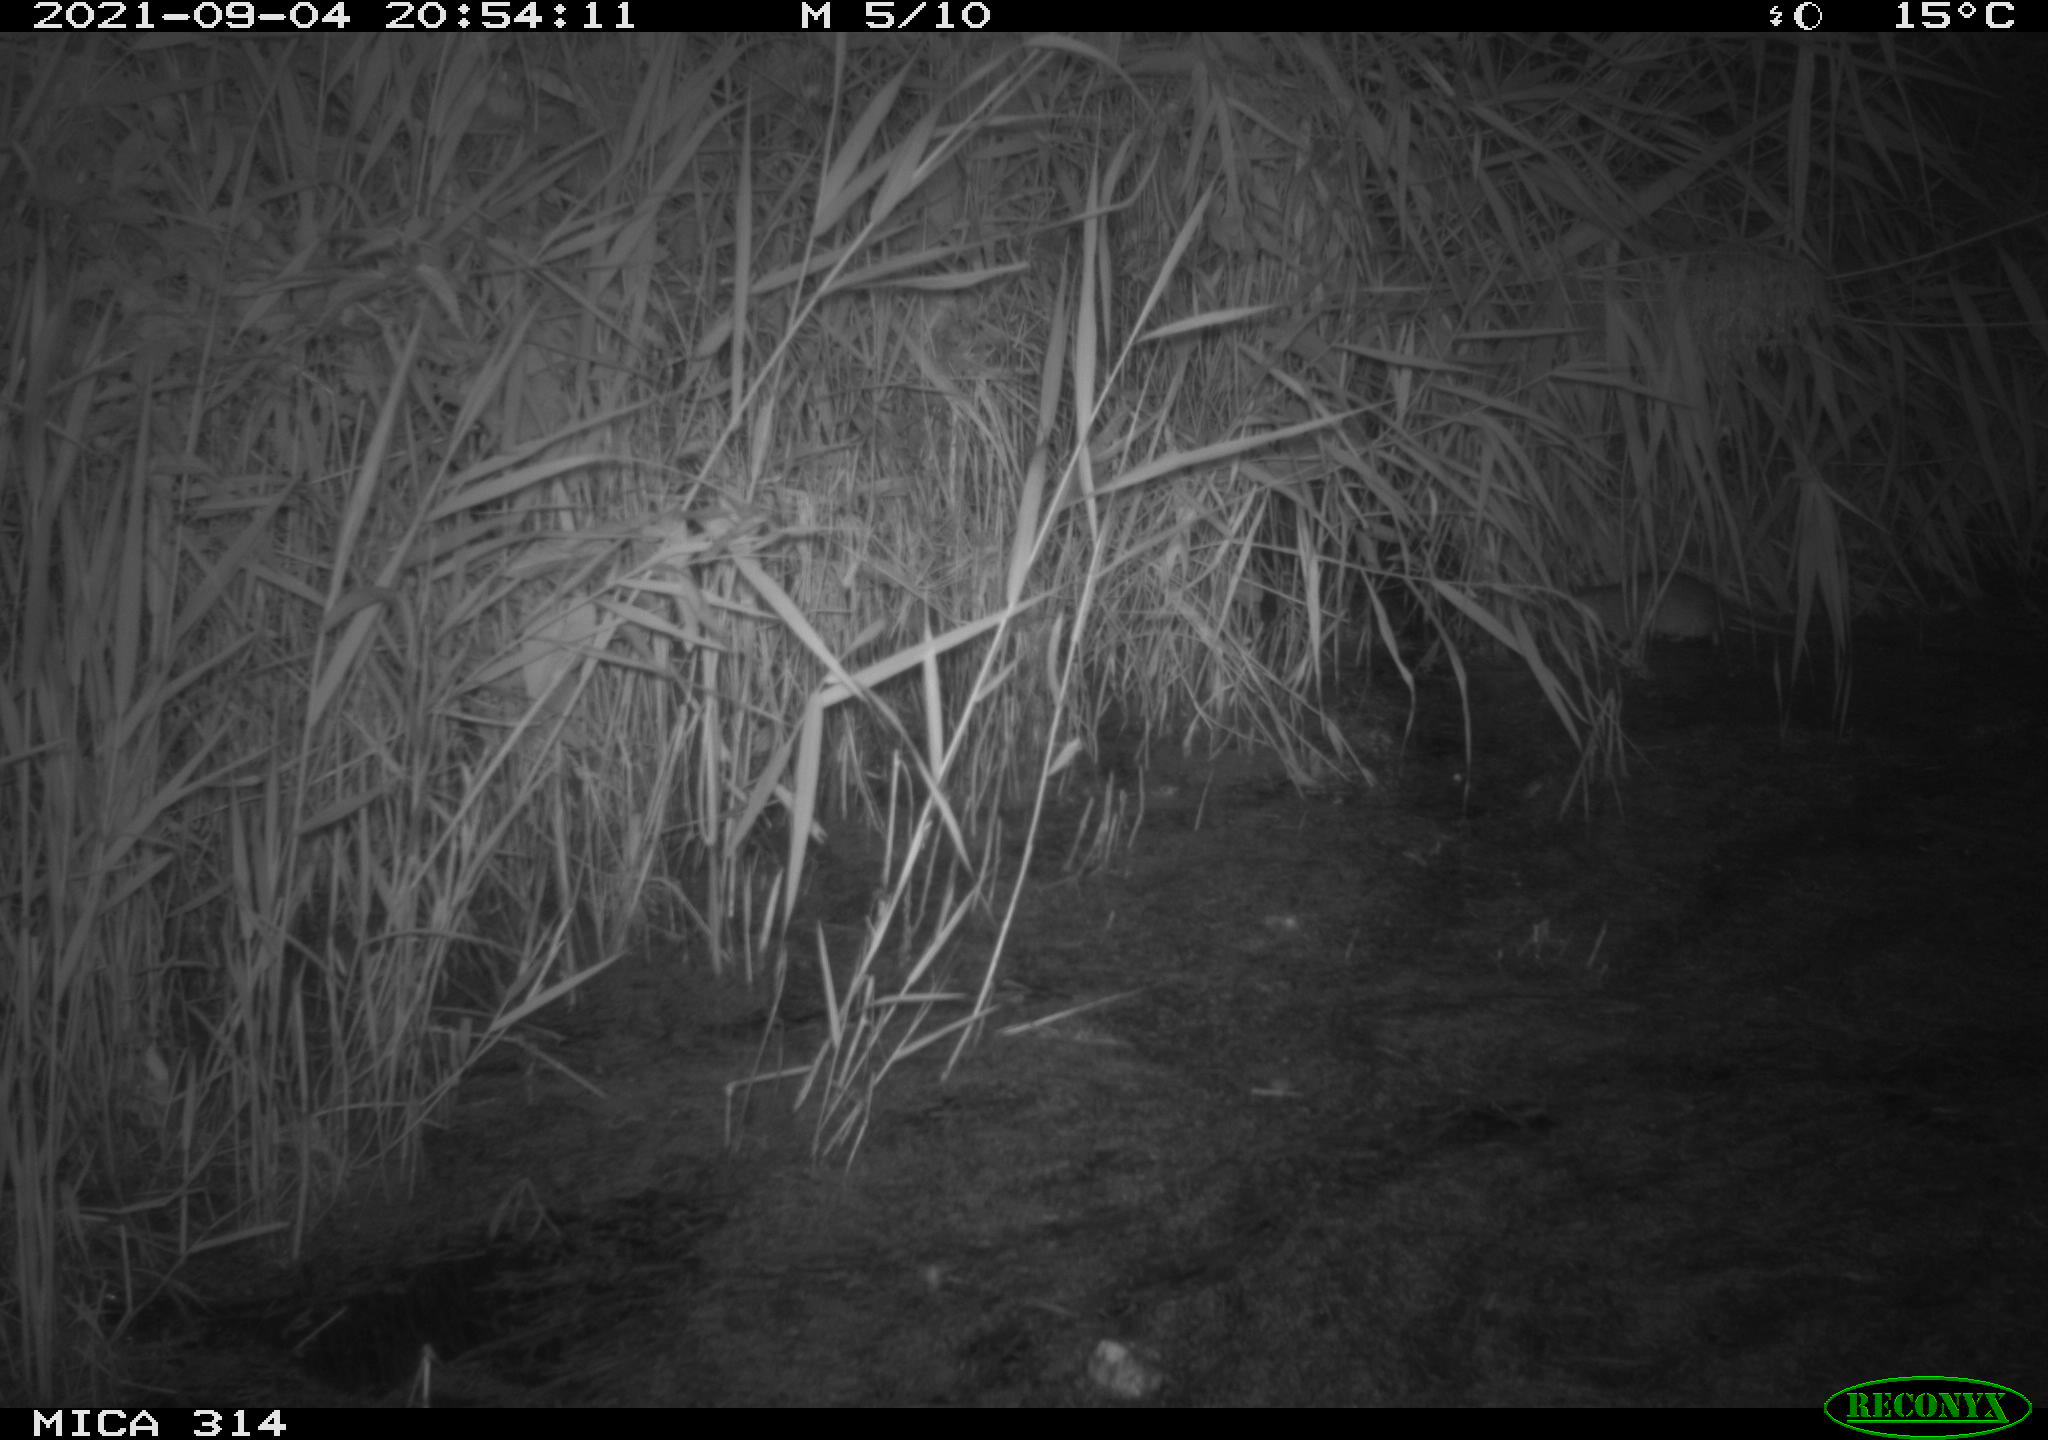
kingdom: Animalia
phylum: Chordata
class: Mammalia
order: Rodentia
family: Muridae
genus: Rattus
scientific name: Rattus norvegicus
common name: Brown rat
